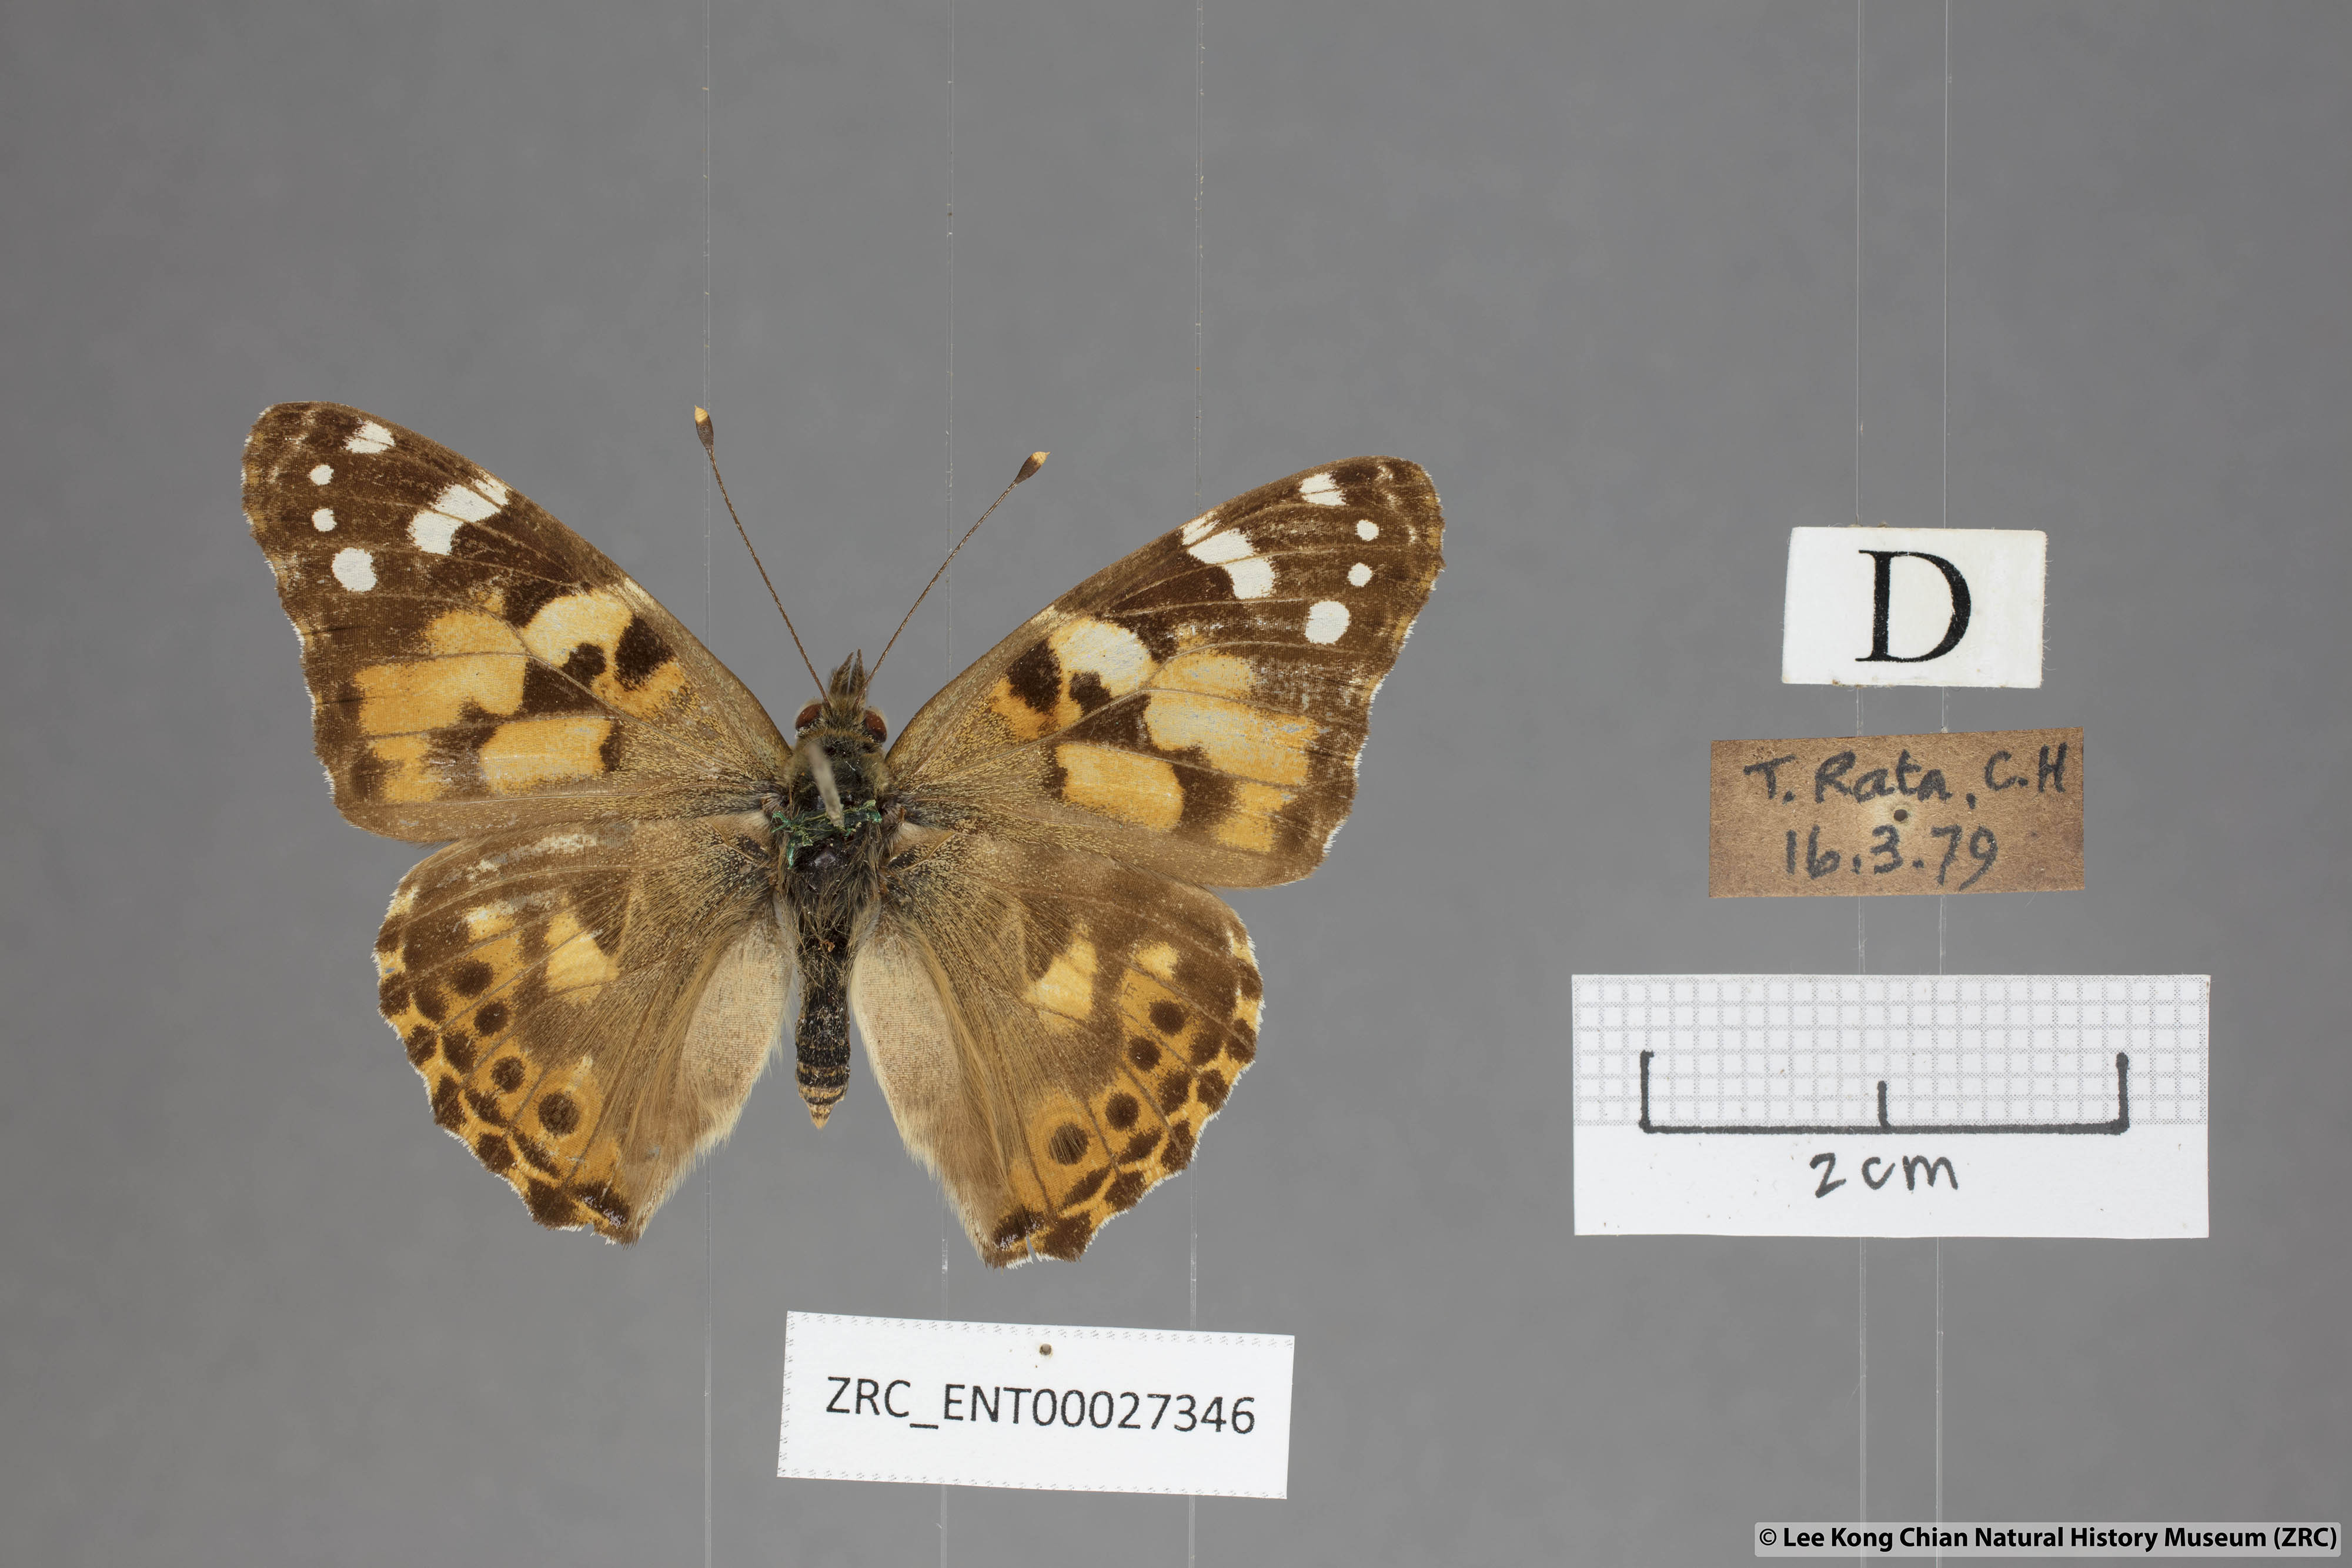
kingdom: Animalia
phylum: Arthropoda
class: Insecta
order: Lepidoptera
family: Nymphalidae
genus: Vanessa
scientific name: Vanessa cardui
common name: Painted lady
